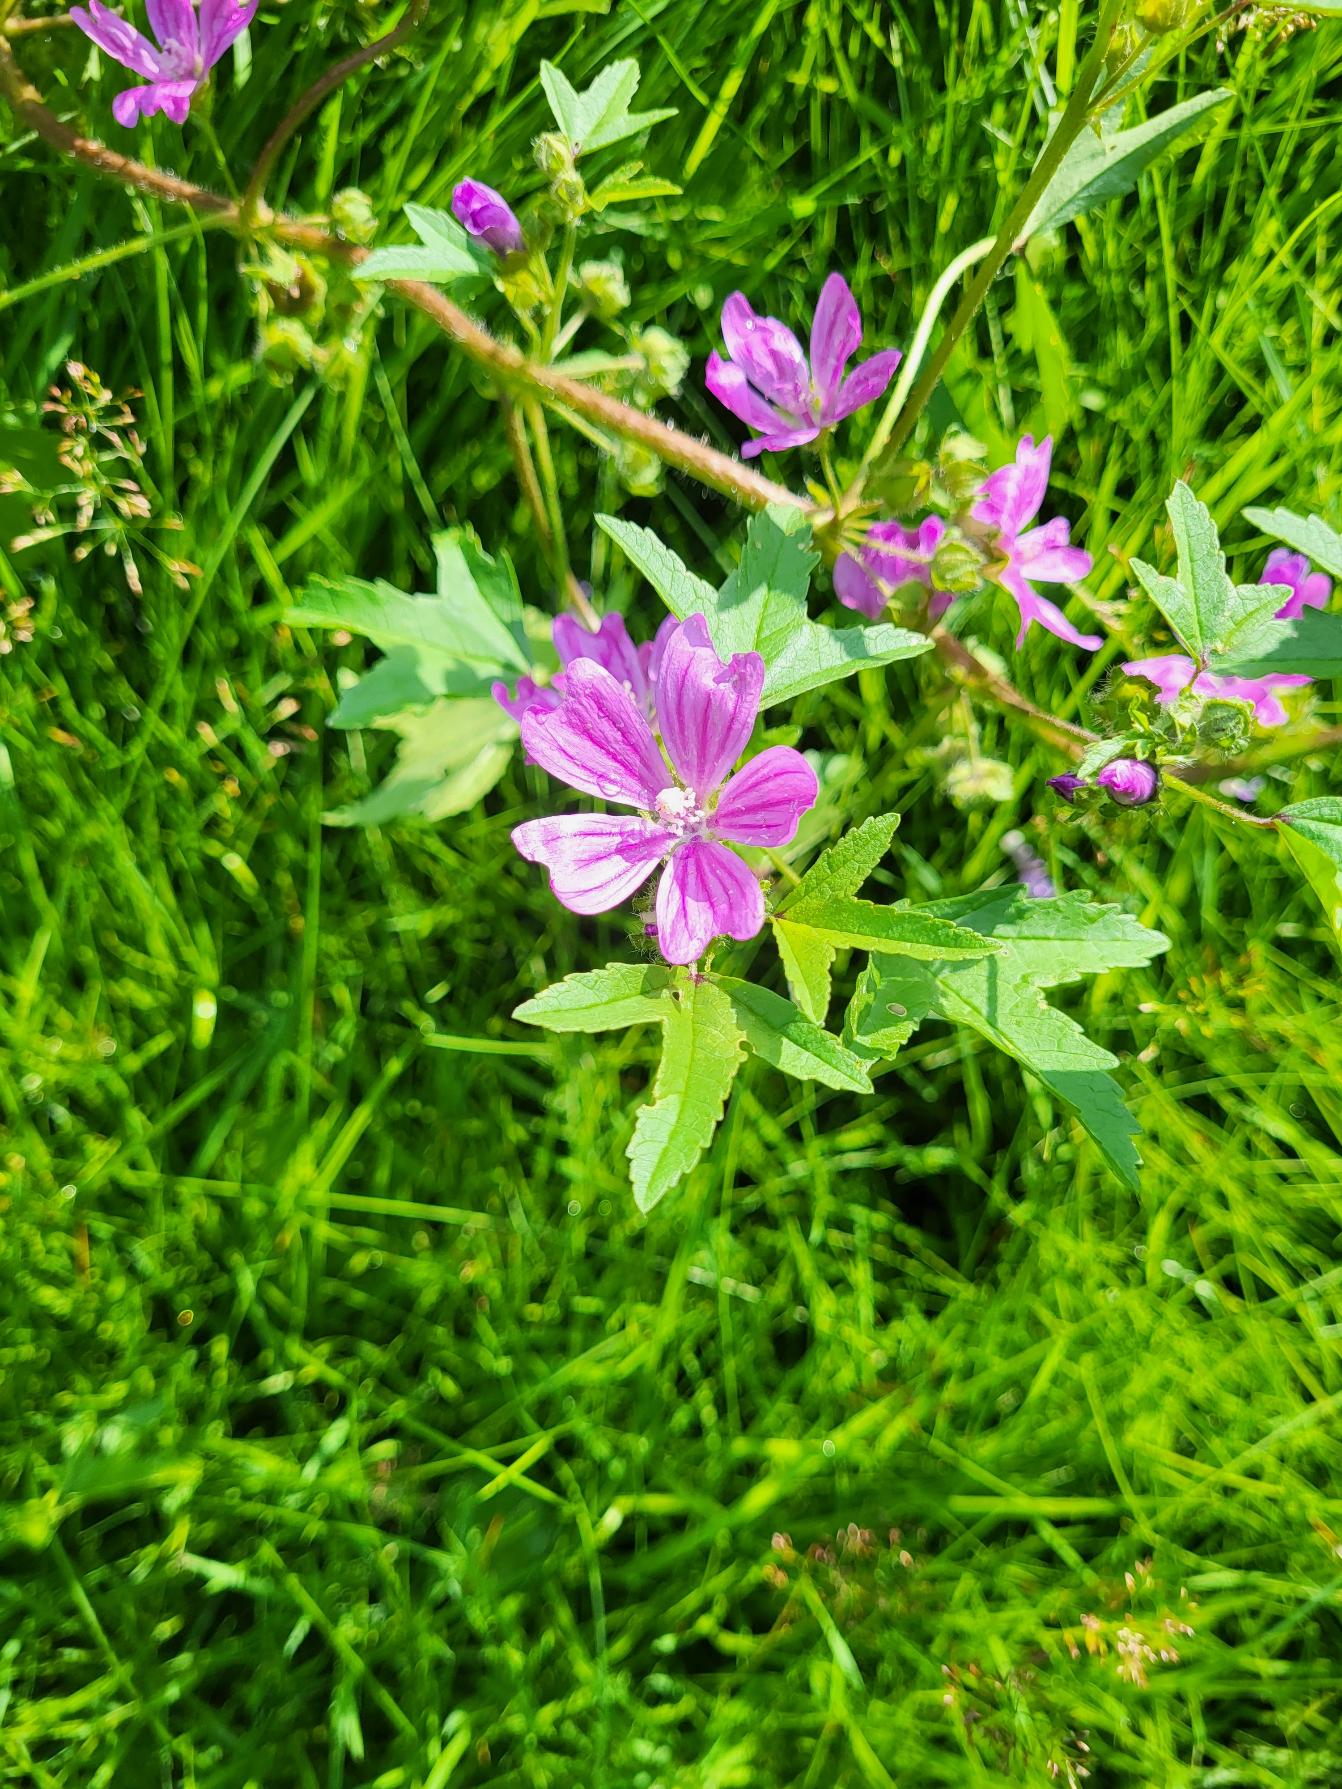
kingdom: Plantae
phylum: Tracheophyta
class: Magnoliopsida
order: Malvales
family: Malvaceae
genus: Malva
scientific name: Malva sylvestris
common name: Almindelig katost
